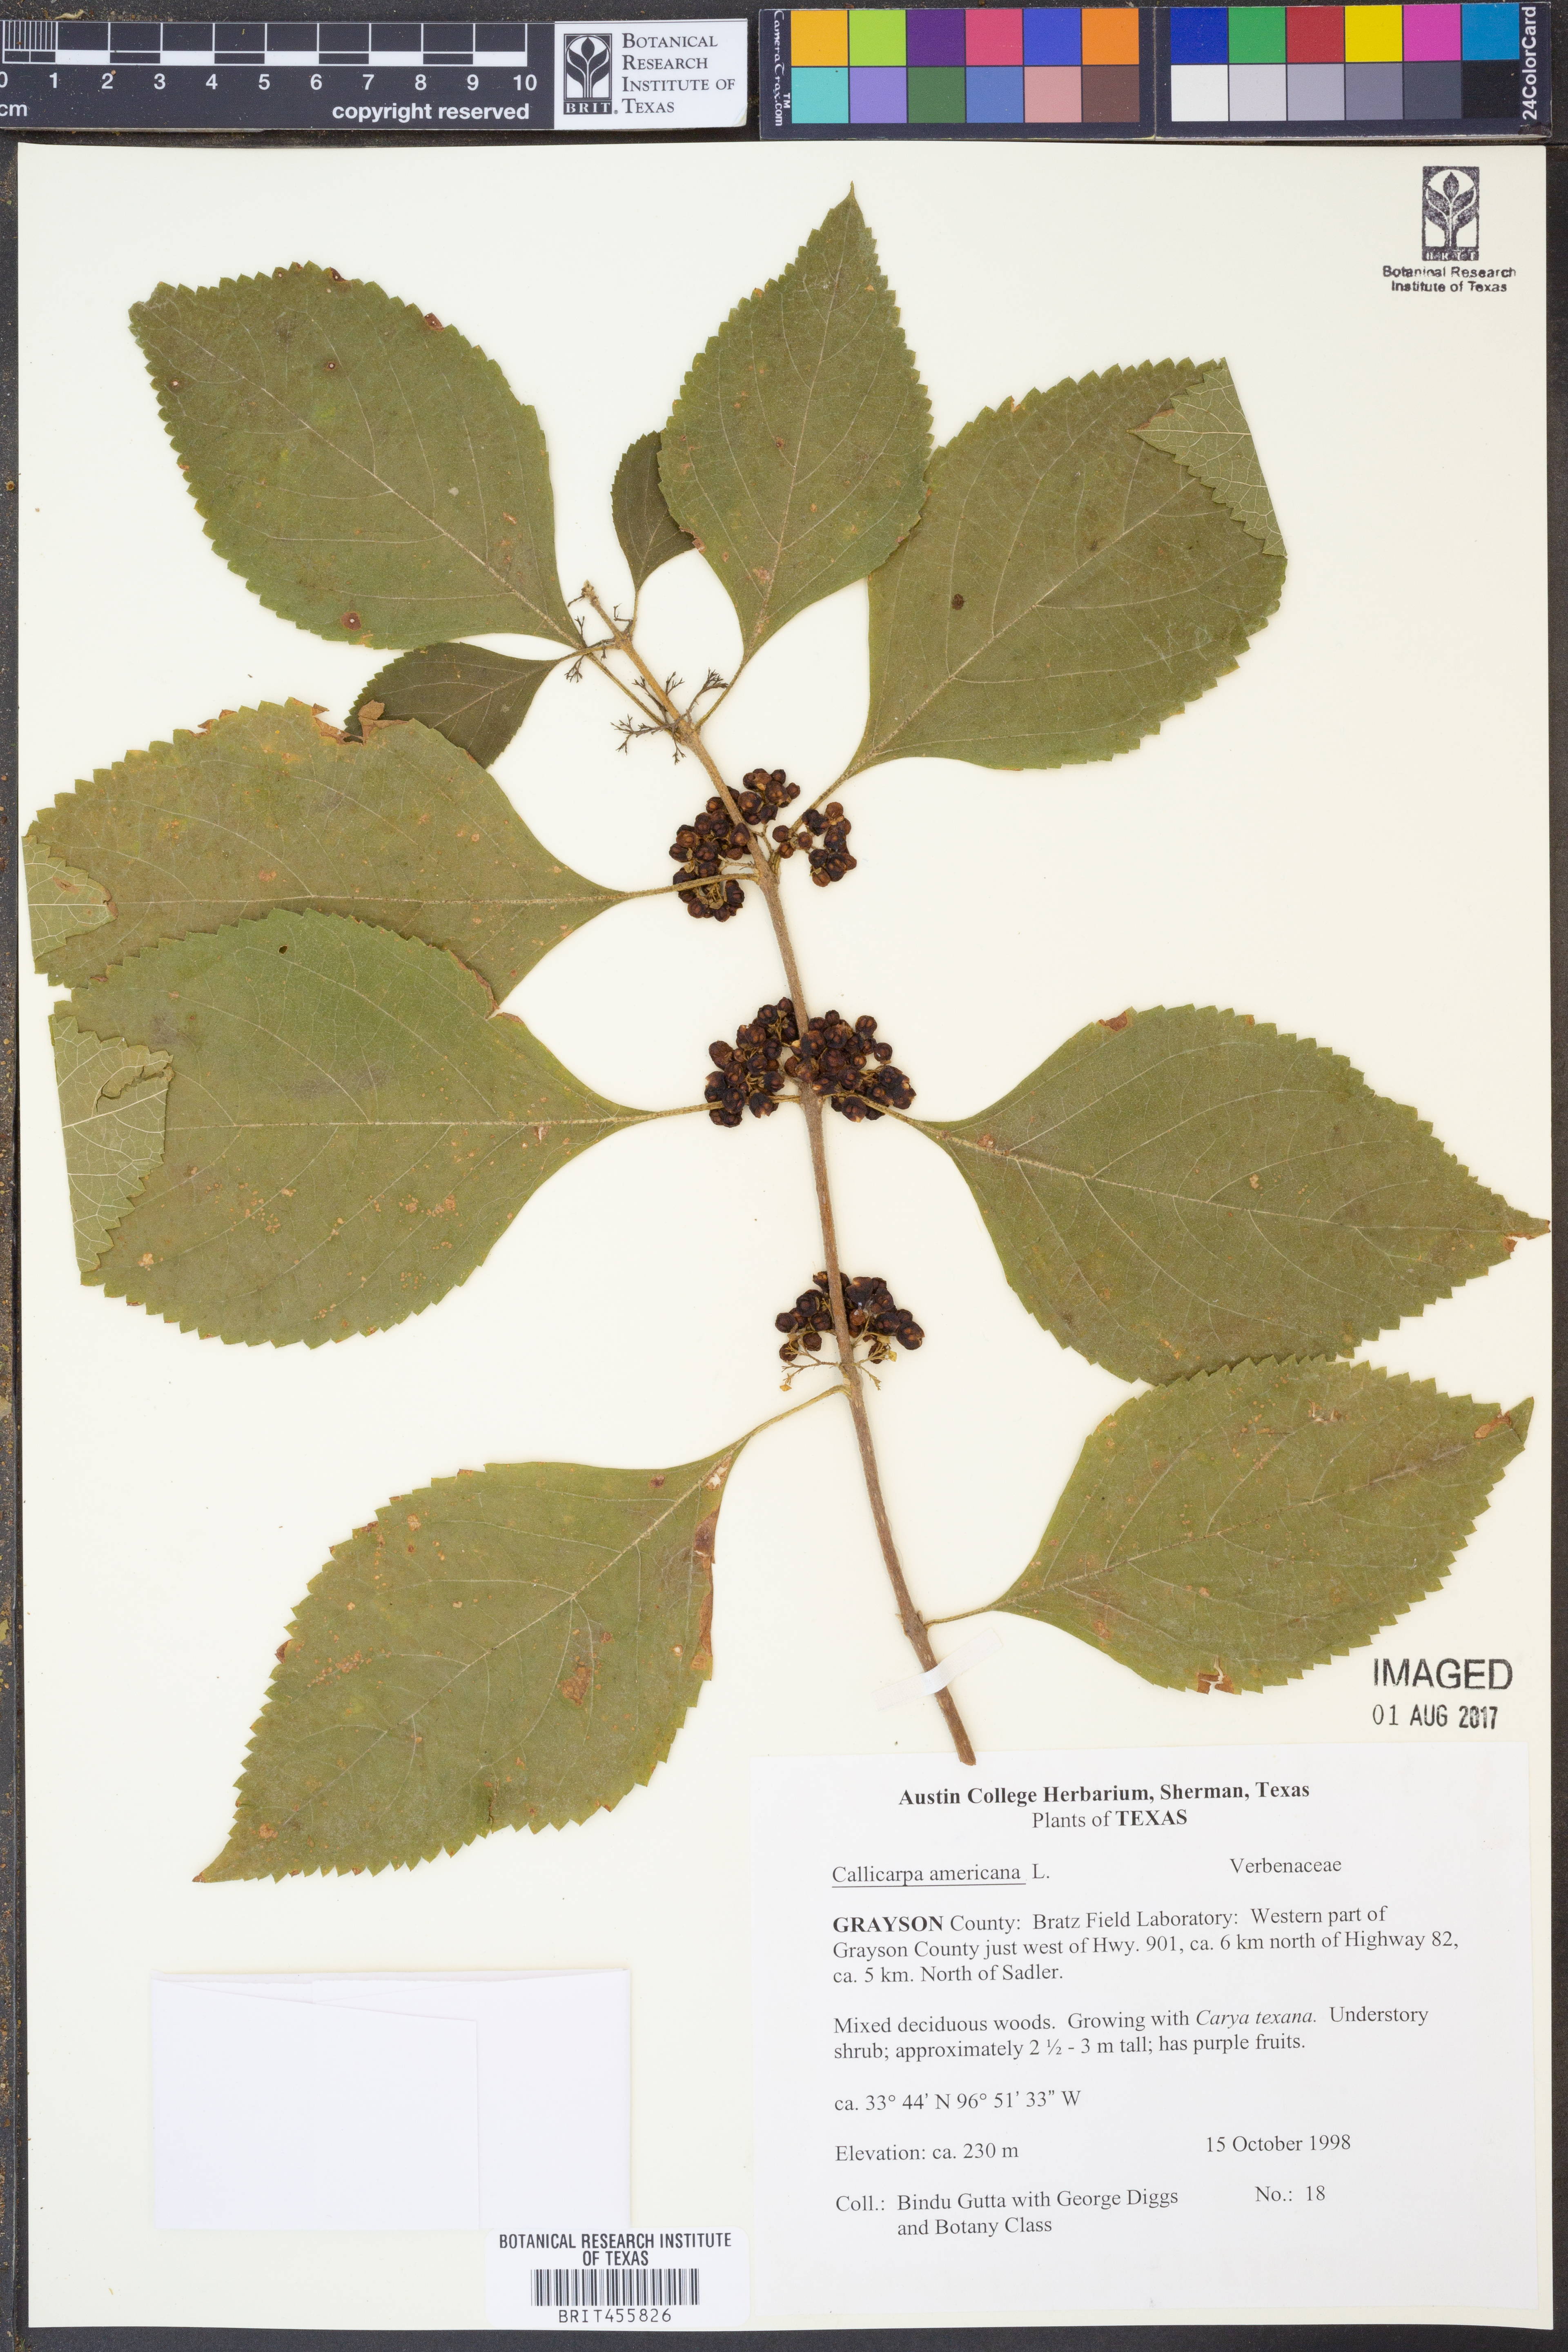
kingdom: Plantae
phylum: Tracheophyta
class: Magnoliopsida
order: Lamiales
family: Lamiaceae
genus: Callicarpa
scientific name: Callicarpa americana
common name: American beautyberry
